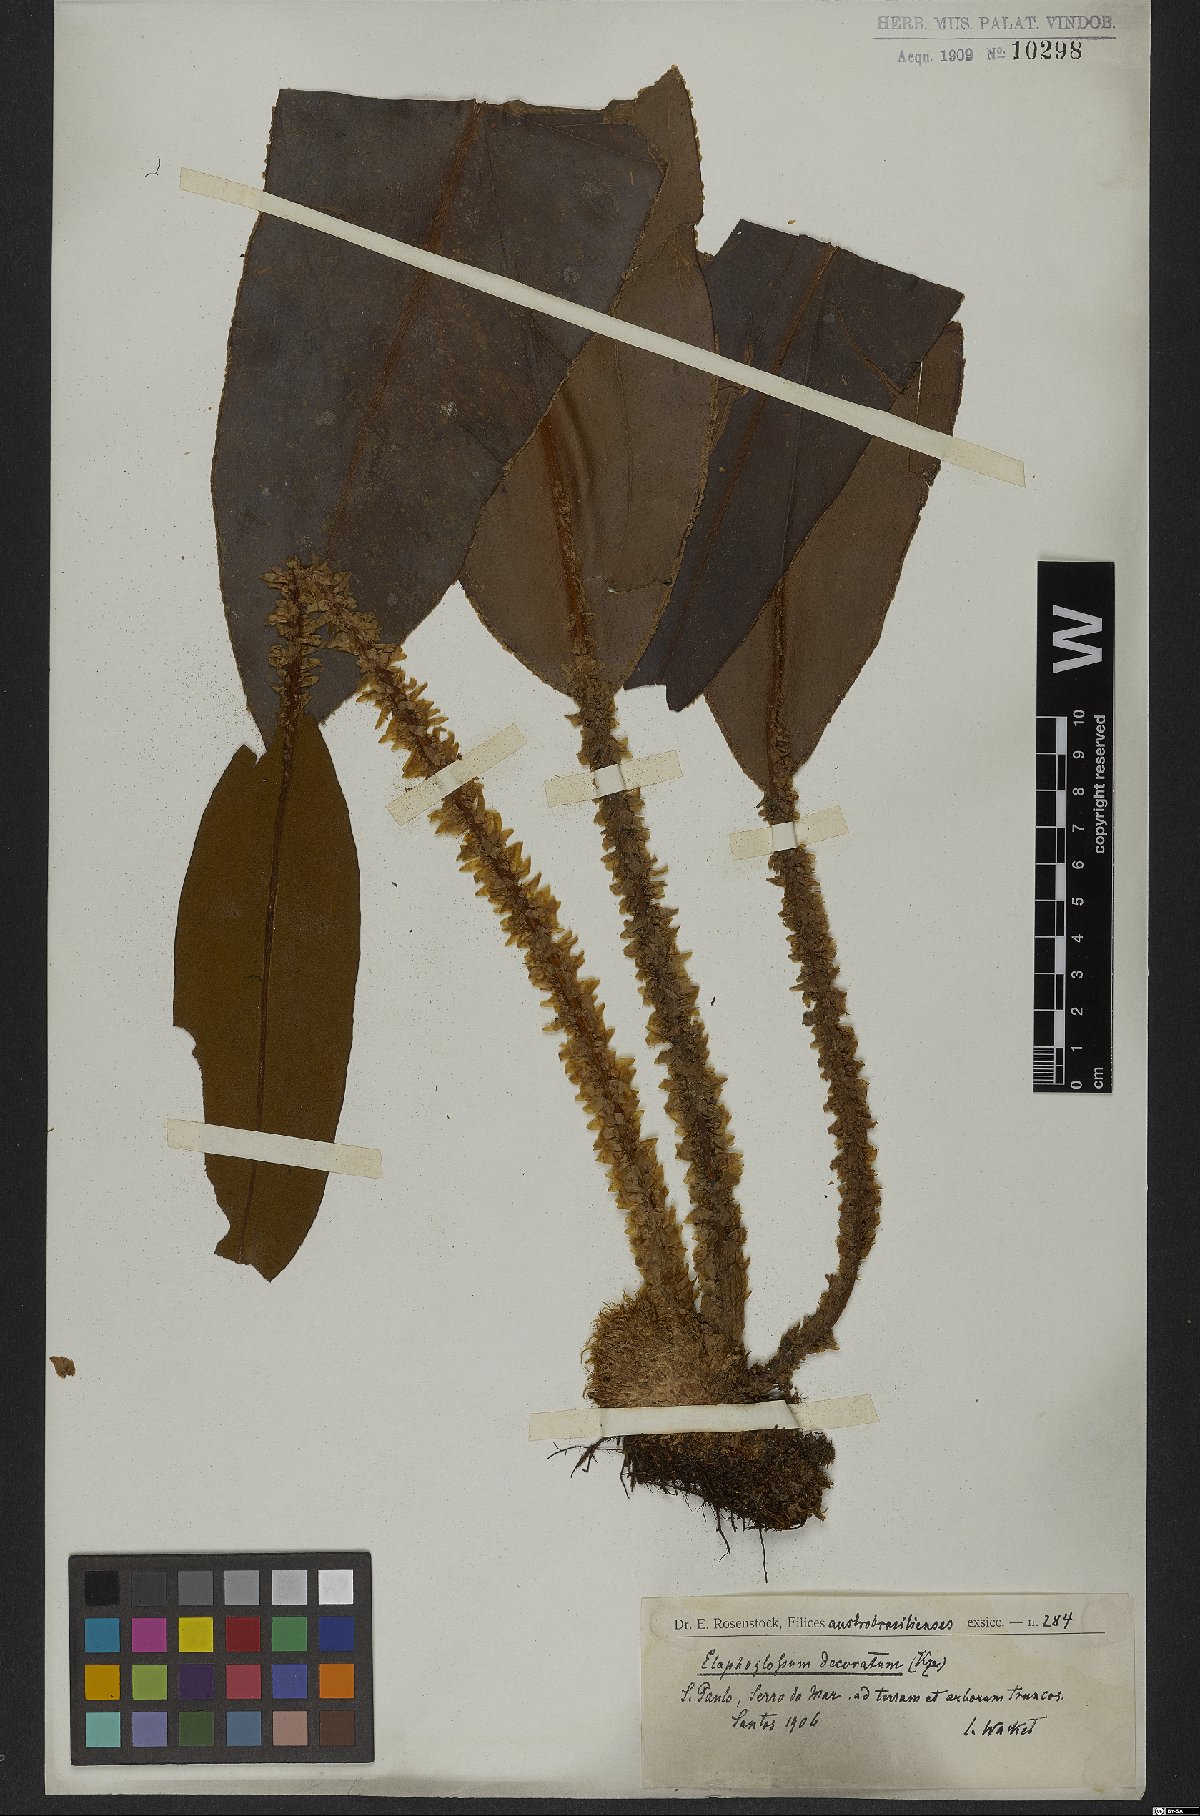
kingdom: Plantae
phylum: Tracheophyta
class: Polypodiopsida
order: Polypodiales
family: Dryopteridaceae
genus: Elaphoglossum
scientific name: Elaphoglossum decoratum
